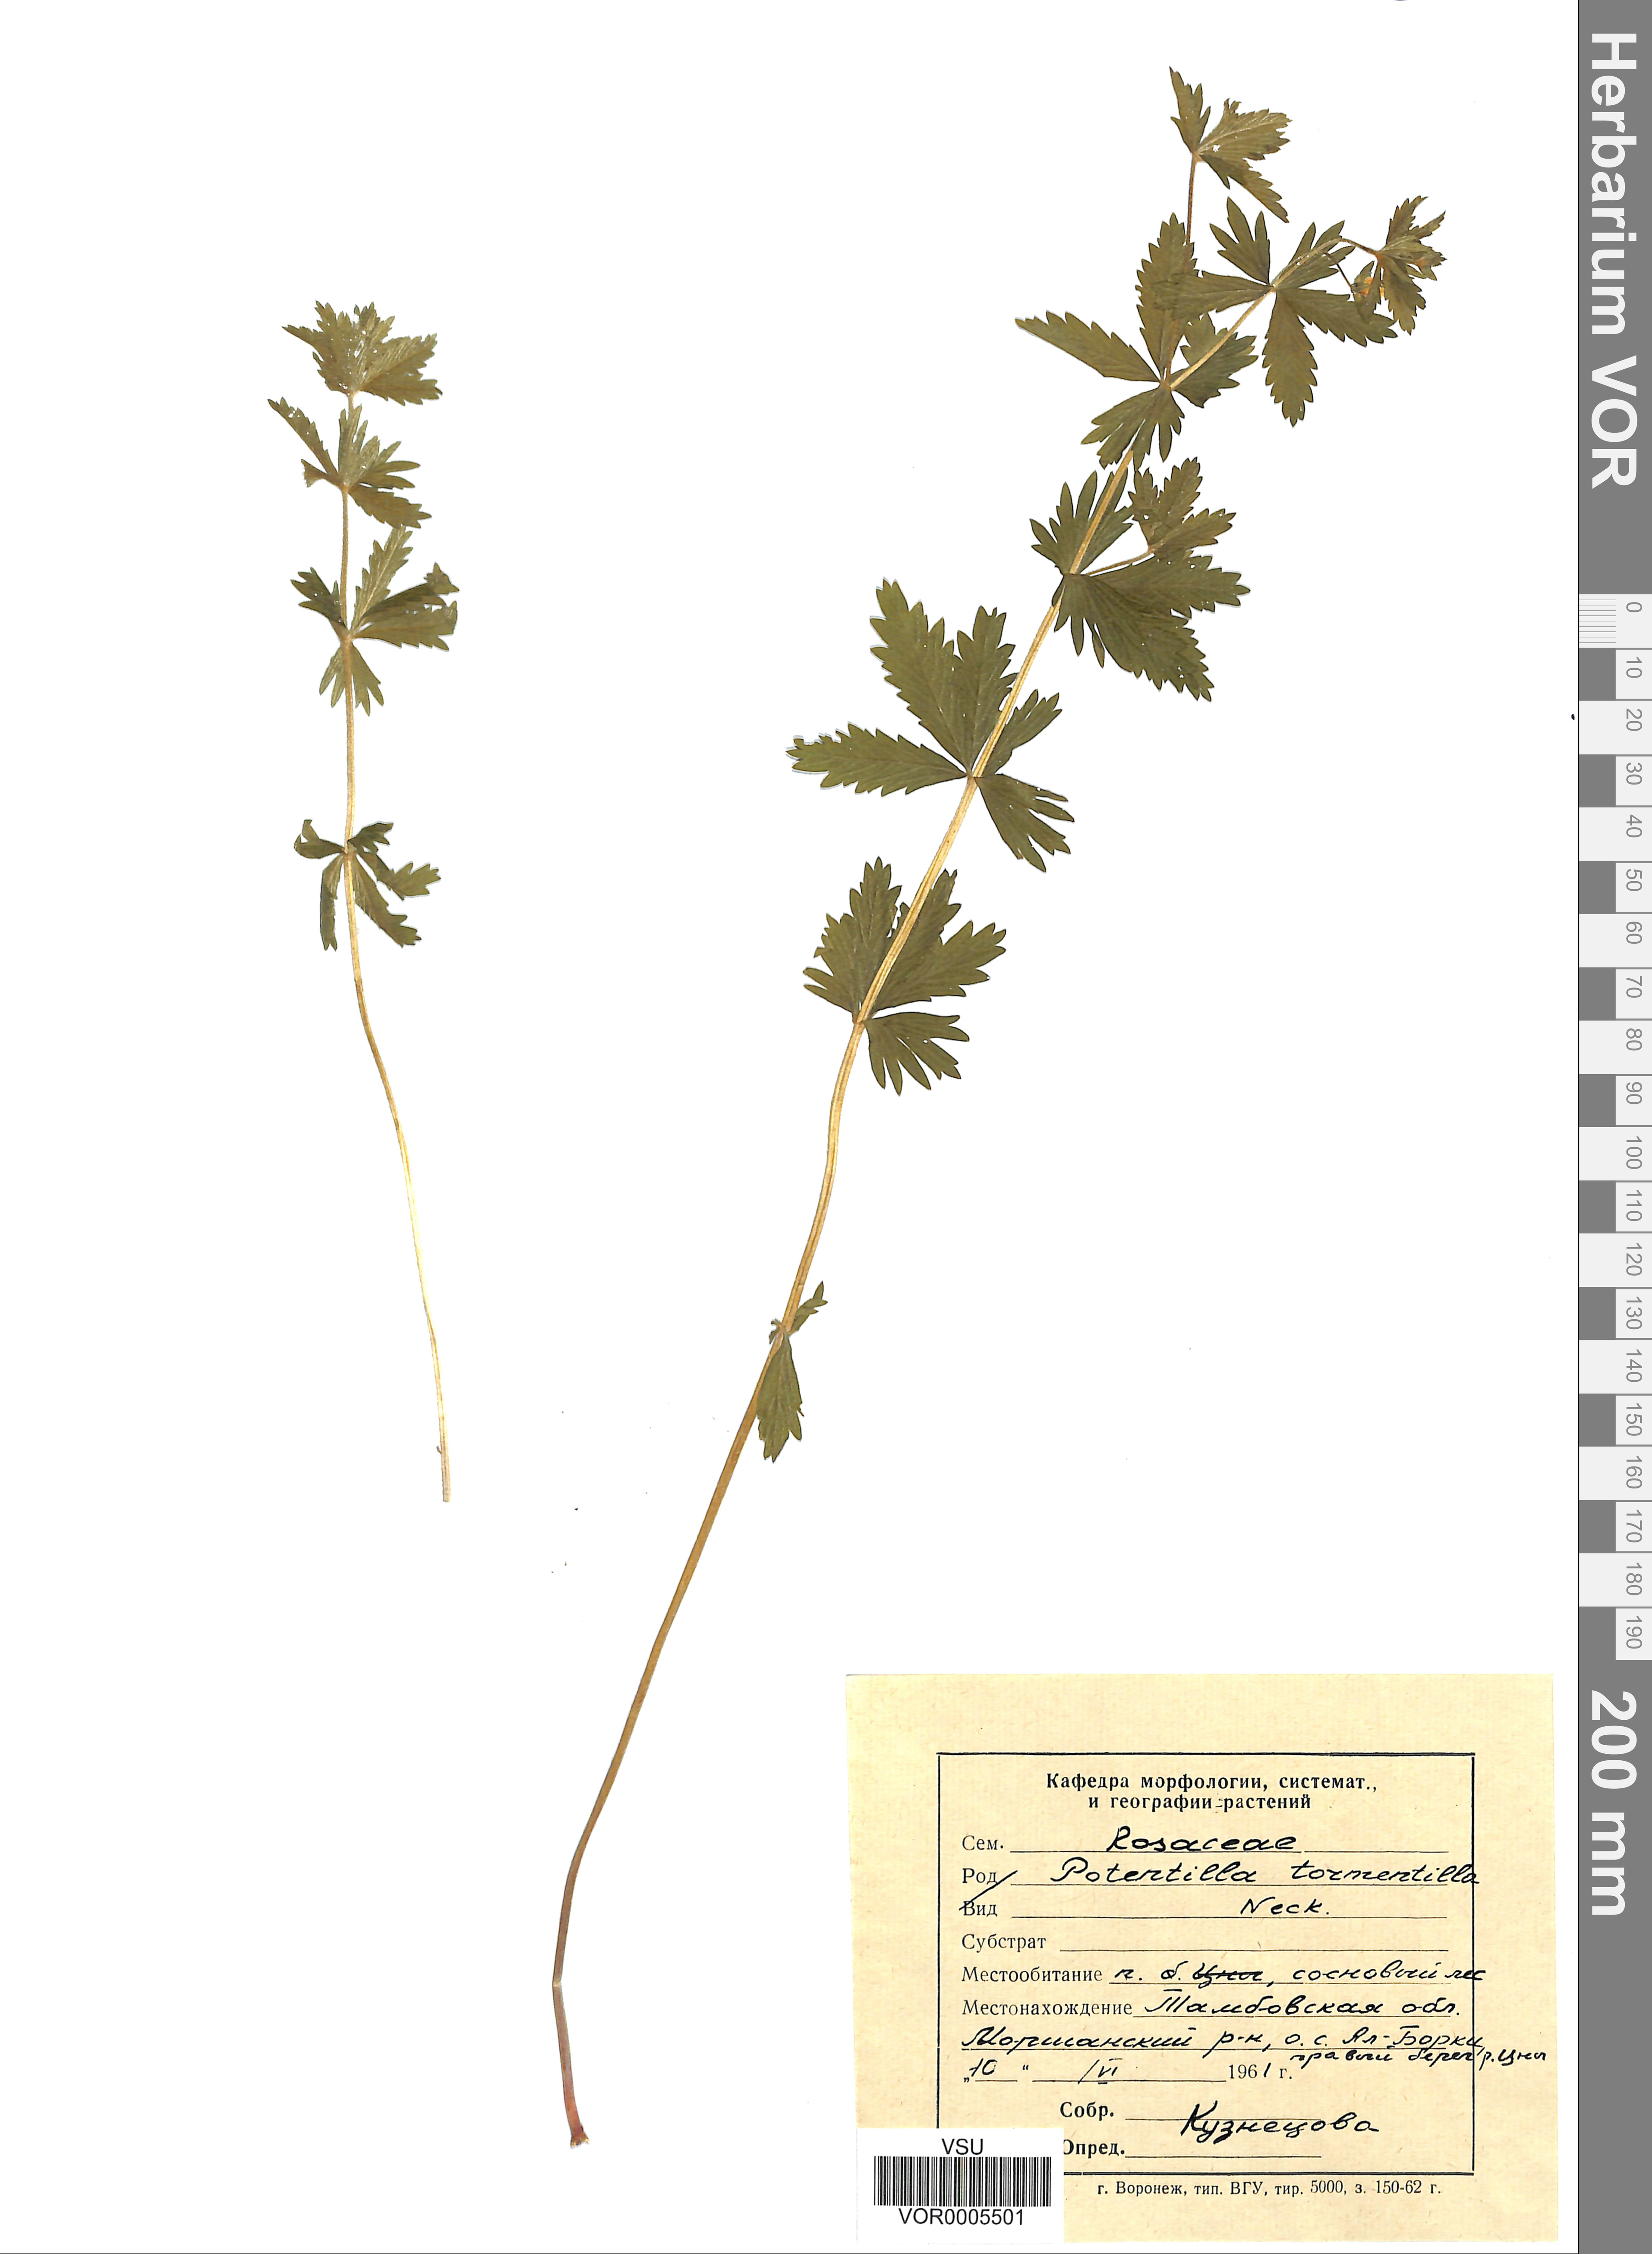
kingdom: Plantae
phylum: Tracheophyta
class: Magnoliopsida
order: Rosales
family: Rosaceae
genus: Potentilla
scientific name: Potentilla erecta
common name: Tormentil
